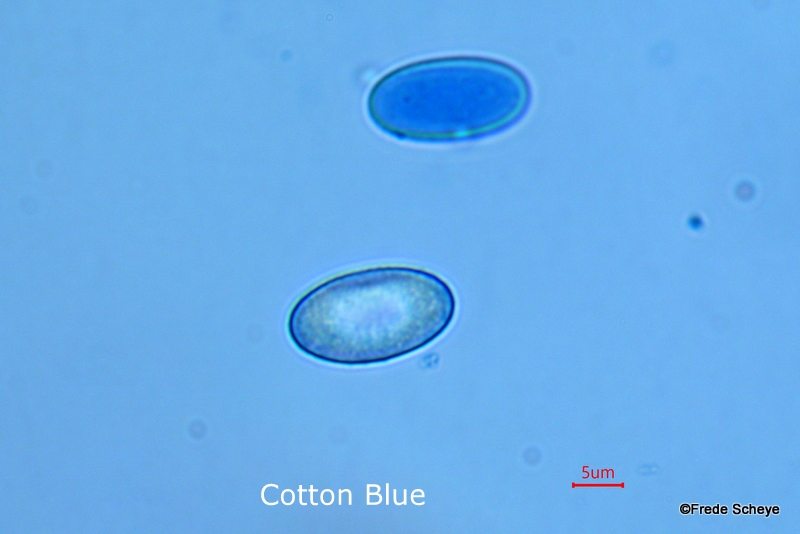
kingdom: Fungi
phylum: Ascomycota
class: Pezizomycetes
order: Pezizales
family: Pezizaceae
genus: Peziza
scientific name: Peziza
